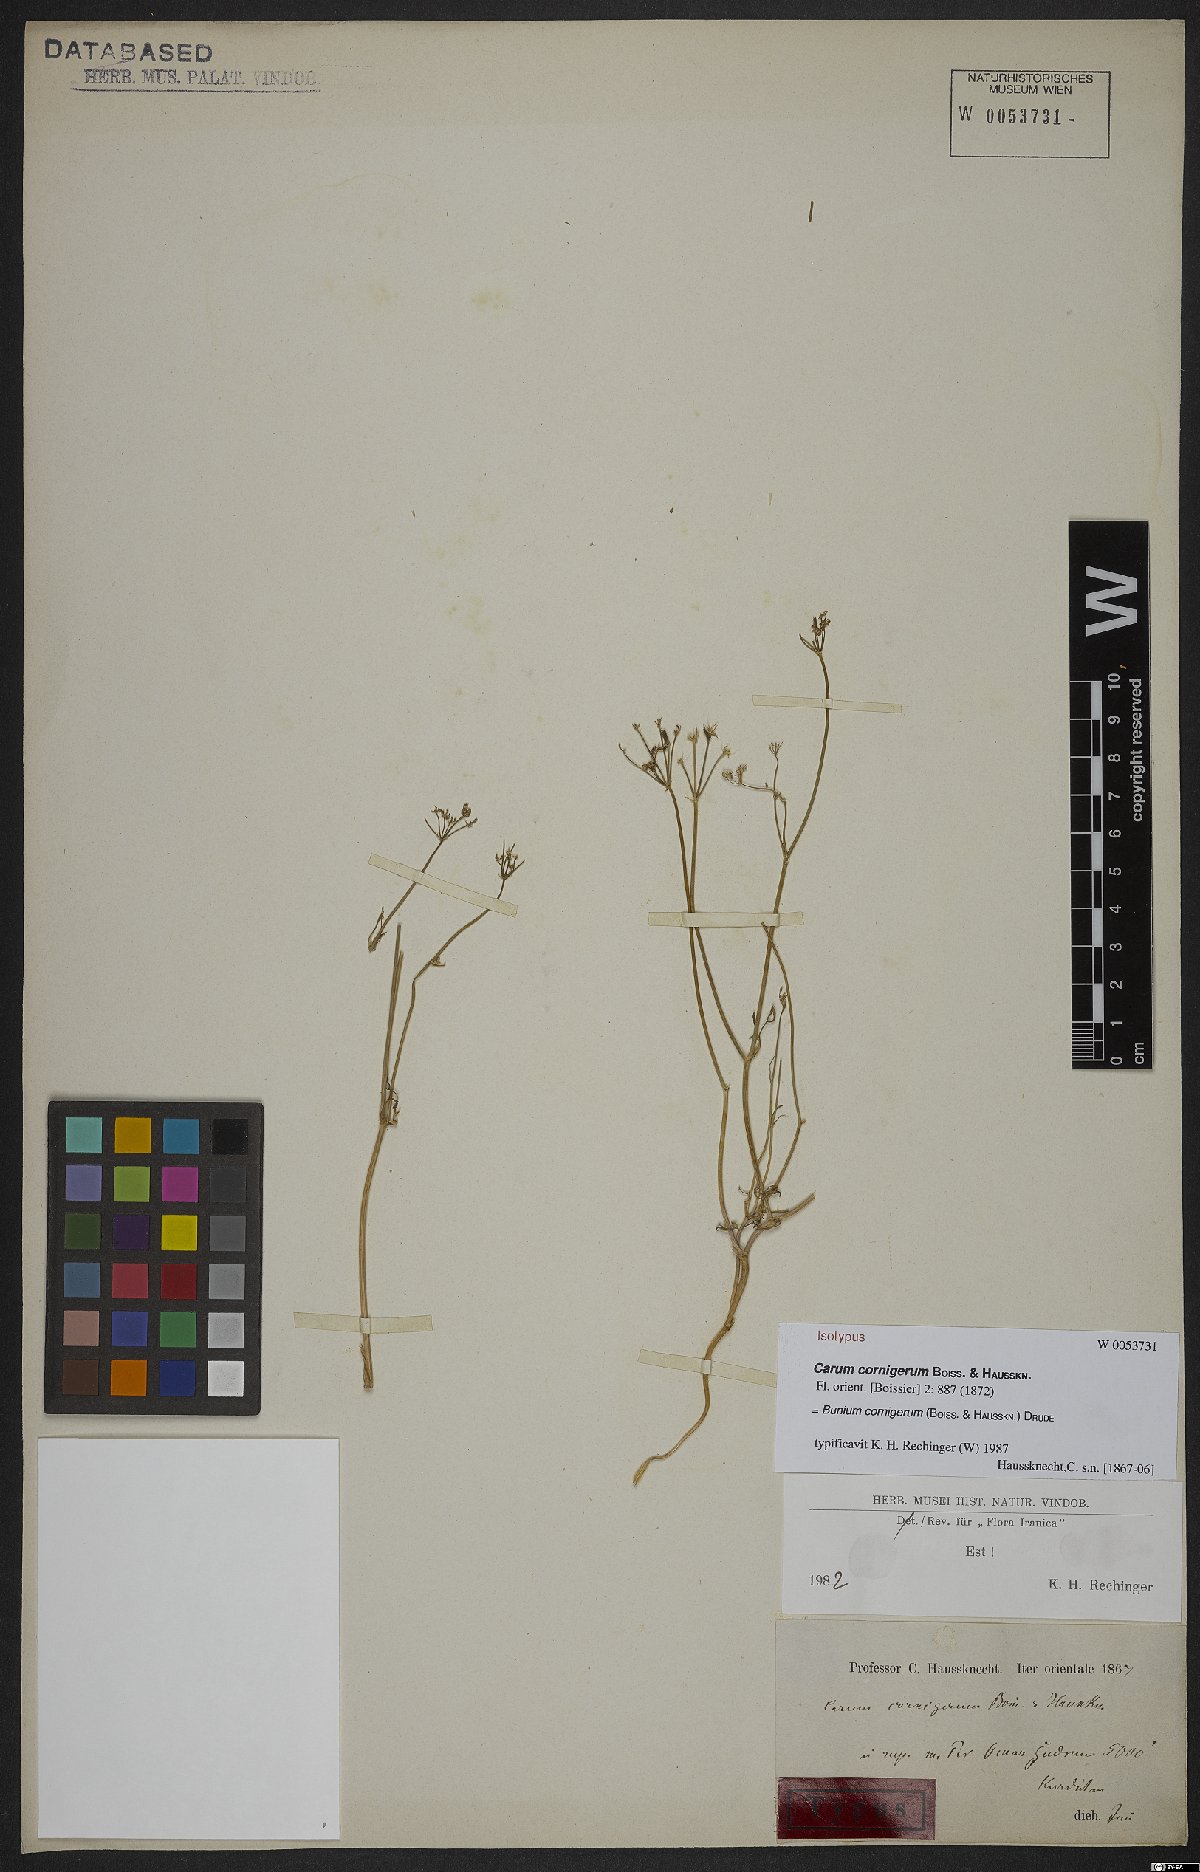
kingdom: Plantae
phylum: Tracheophyta
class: Magnoliopsida
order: Apiales
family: Apiaceae
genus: Bunium
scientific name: Bunium cornigerum
